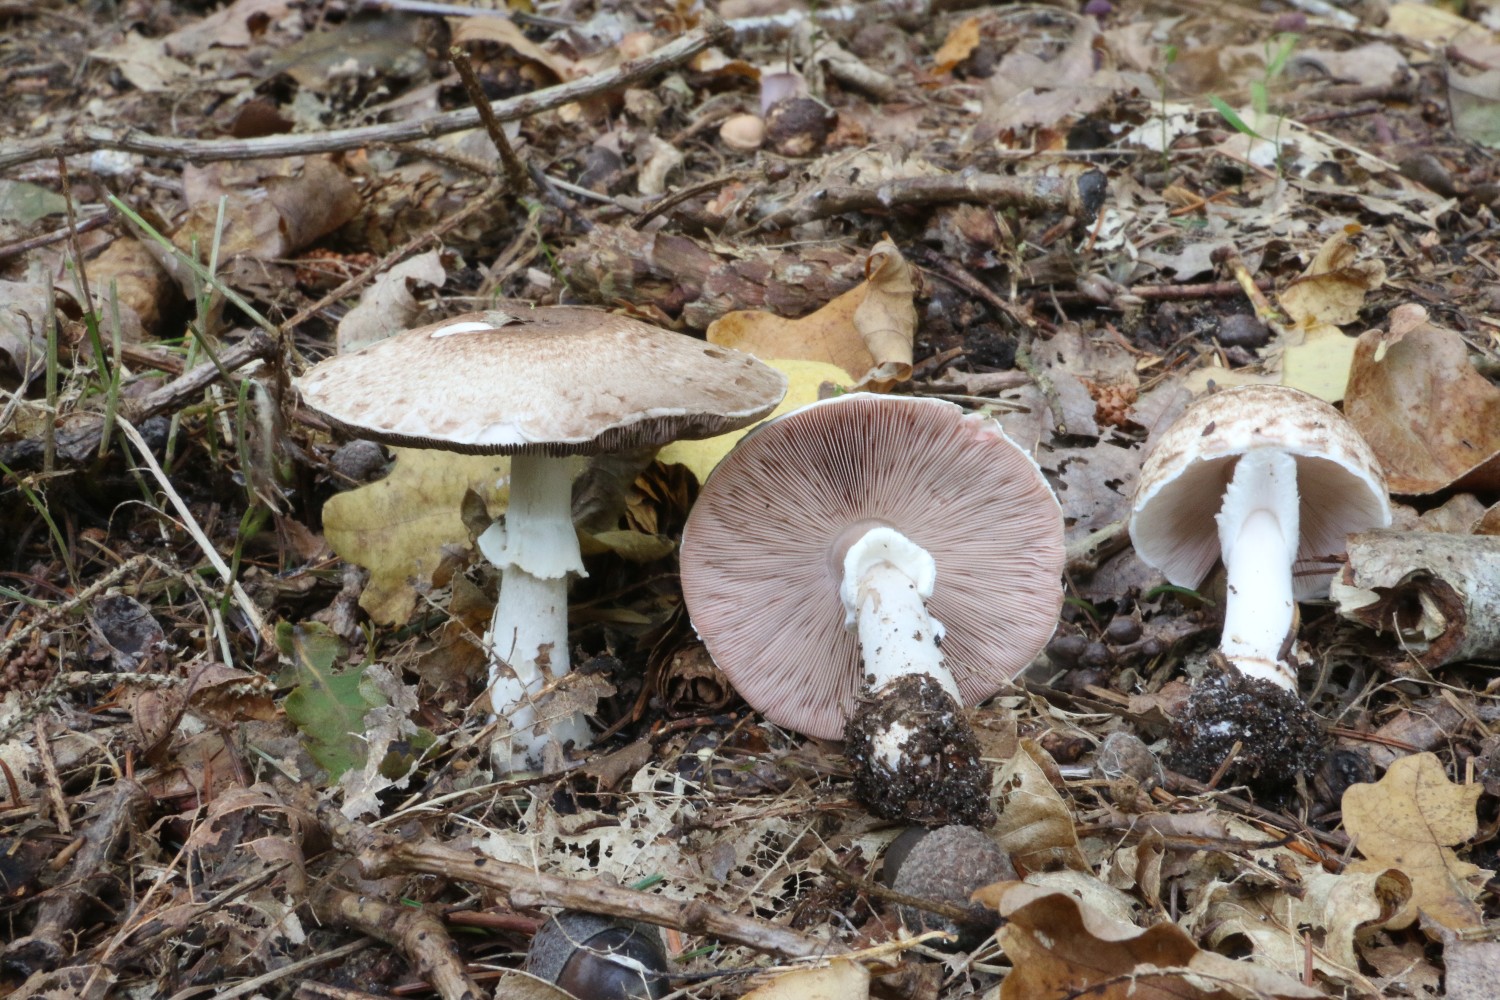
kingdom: Fungi
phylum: Basidiomycota
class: Agaricomycetes
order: Agaricales
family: Agaricaceae
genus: Agaricus
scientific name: Agaricus impudicus
